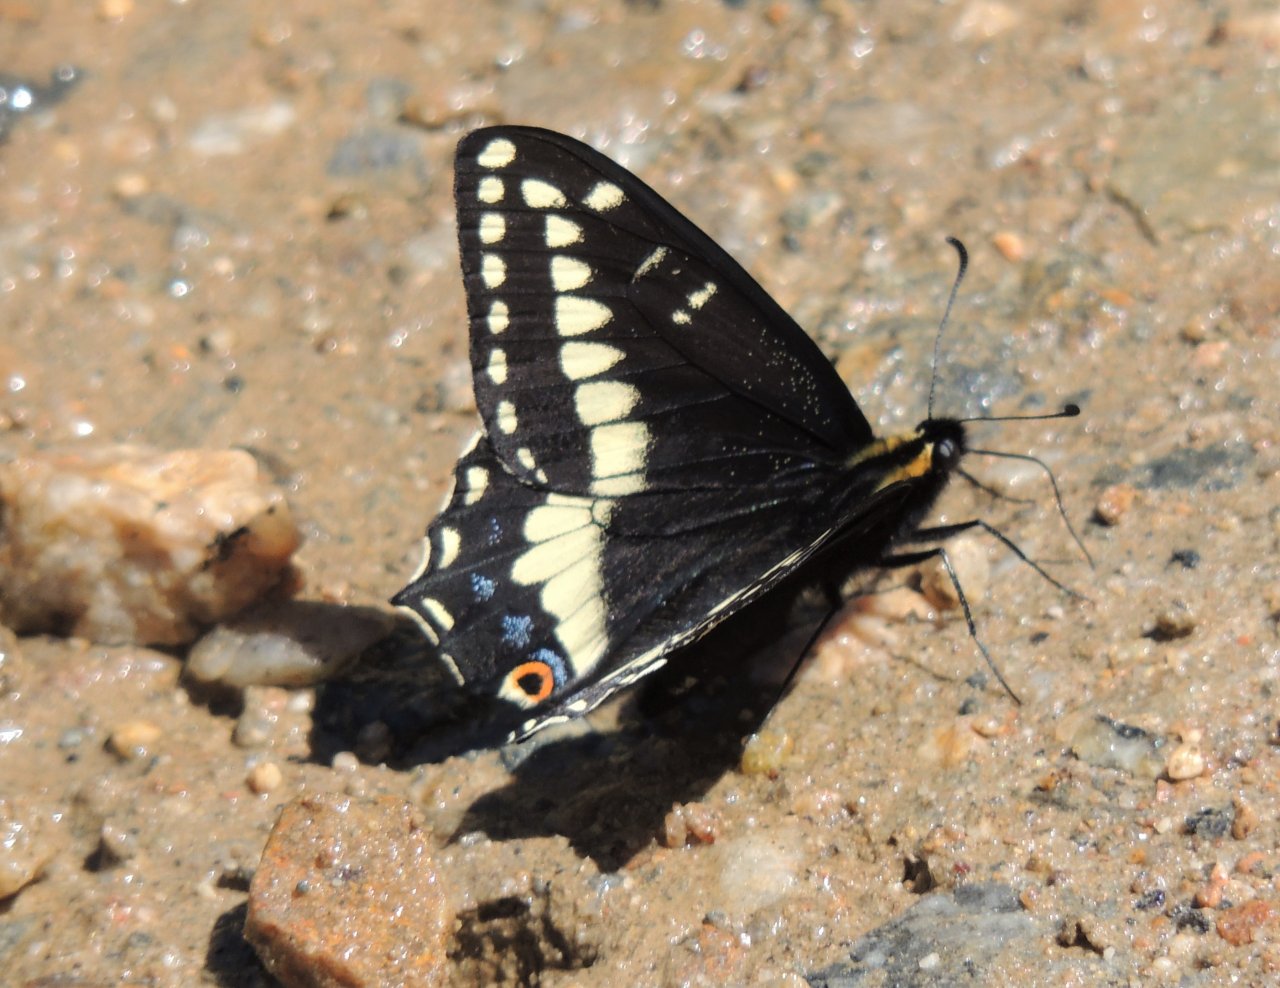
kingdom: Animalia
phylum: Arthropoda
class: Insecta
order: Lepidoptera
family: Papilionidae
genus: Papilio
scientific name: Papilio indra
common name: Indra Swallowtail
